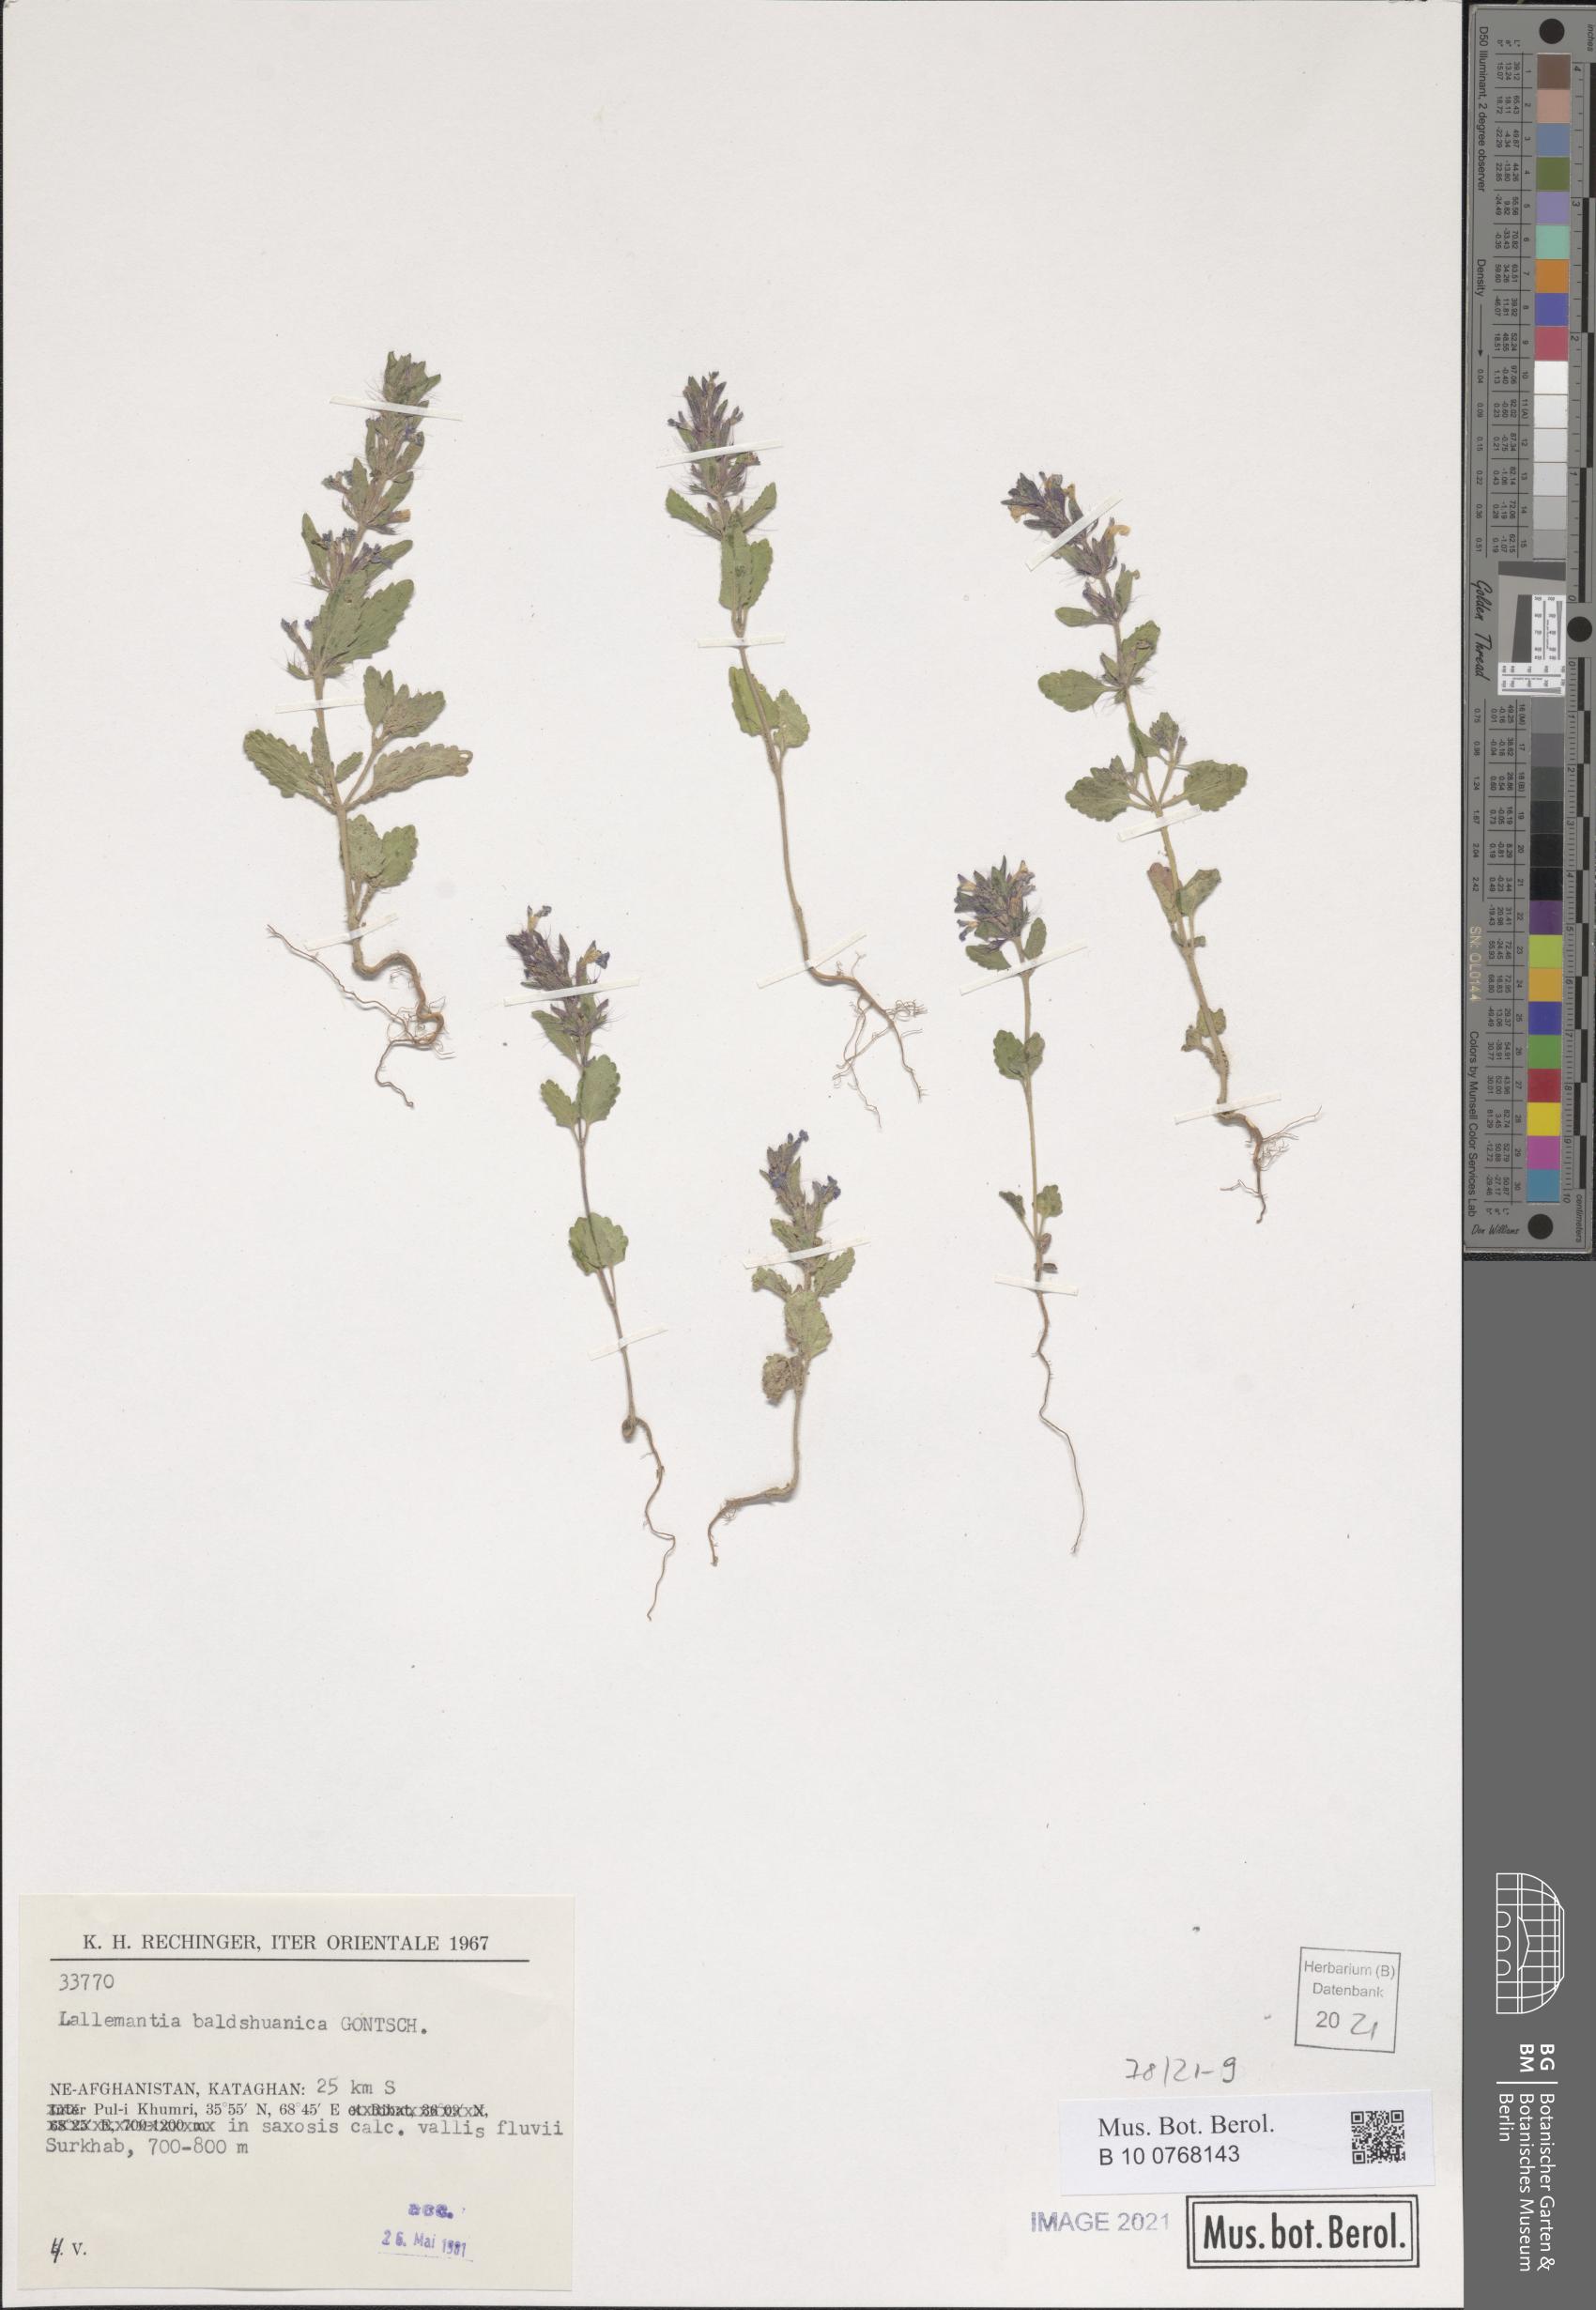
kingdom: Plantae
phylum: Tracheophyta
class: Magnoliopsida
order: Lamiales
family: Lamiaceae
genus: Lallemantia
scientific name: Lallemantia baldshuanica
